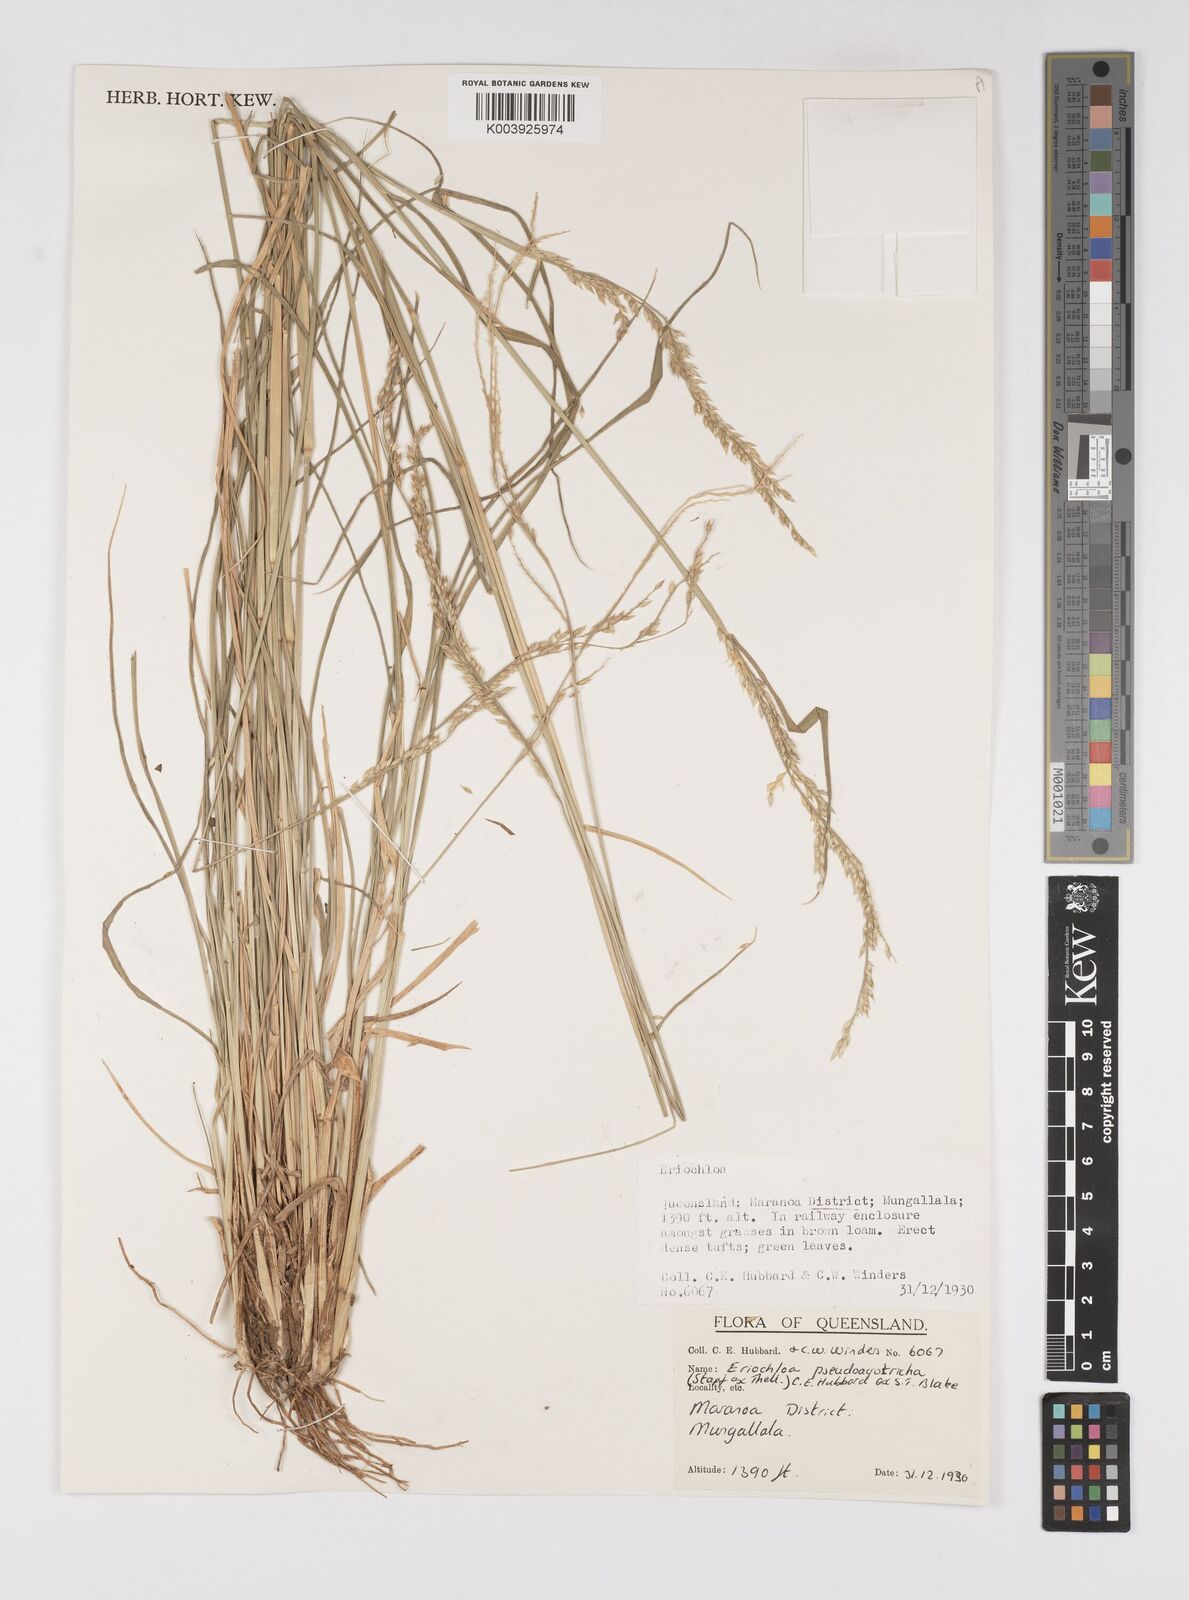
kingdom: Plantae
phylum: Tracheophyta
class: Liliopsida
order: Poales
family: Poaceae
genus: Eriochloa
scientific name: Eriochloa pseudoacrotricha
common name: Perennial cup-grass
